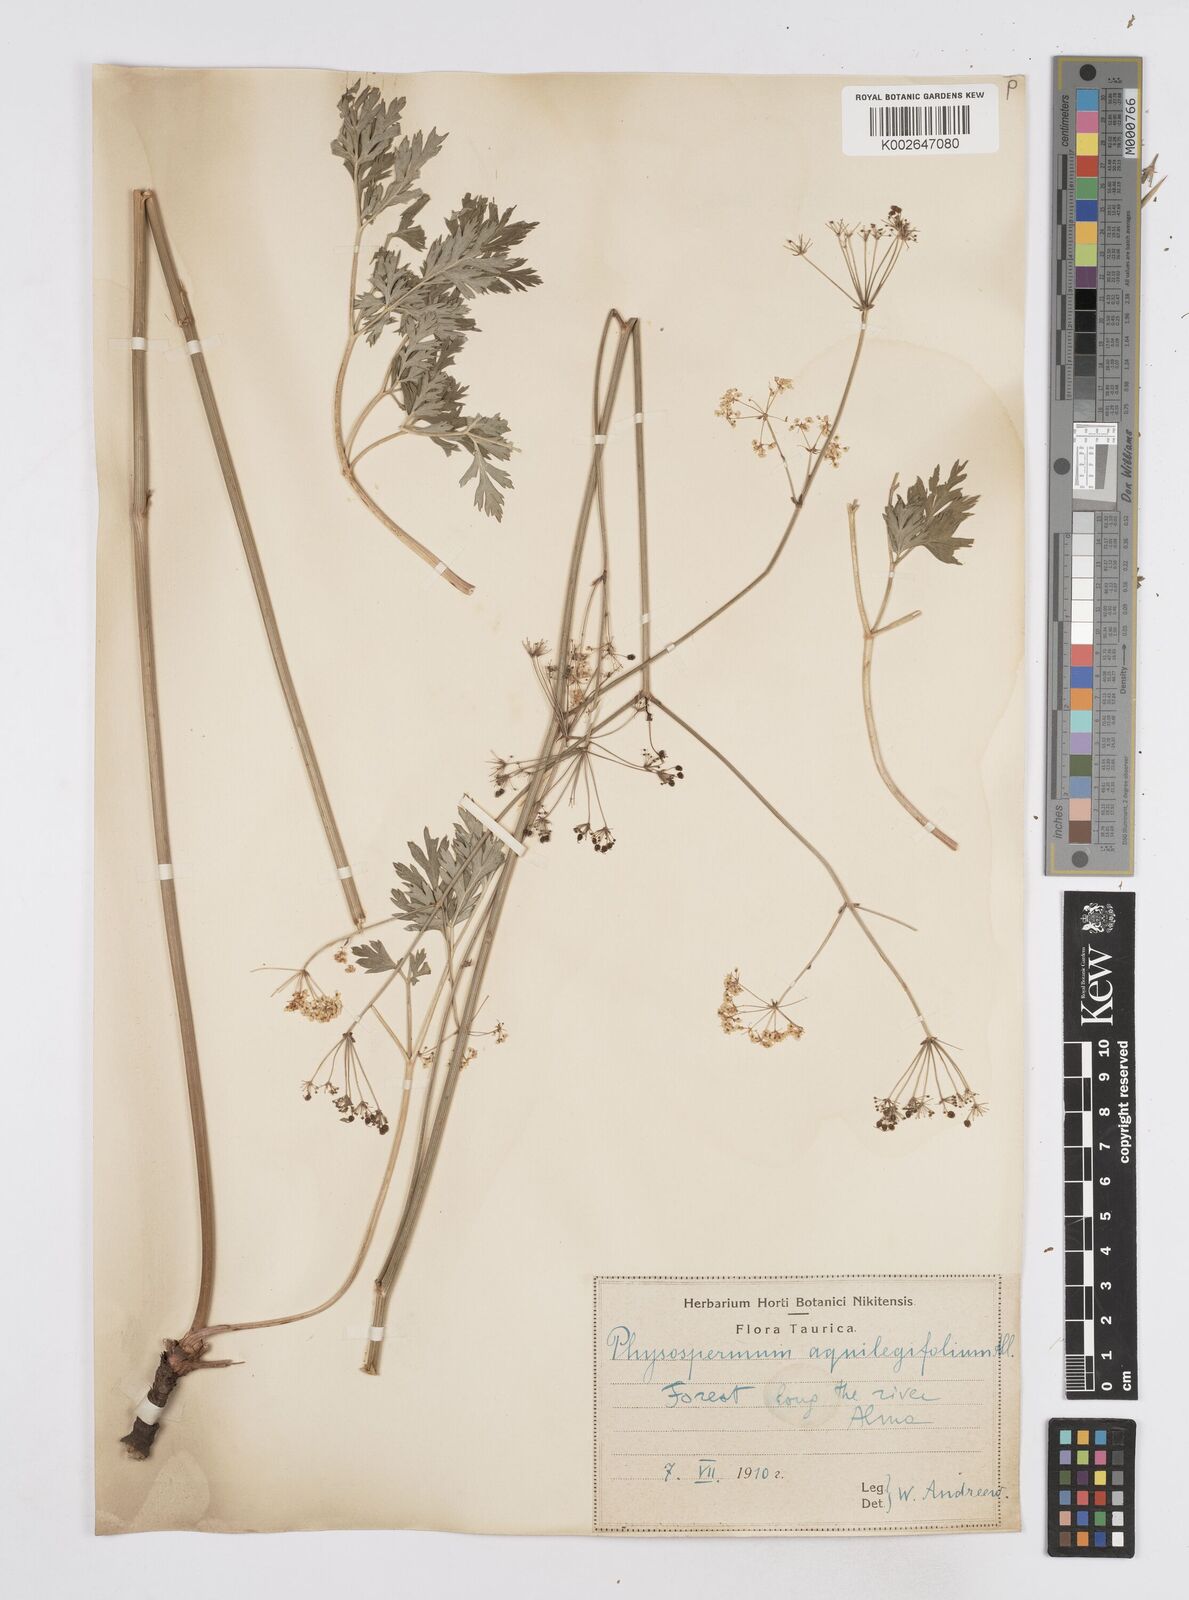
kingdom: Plantae
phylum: Tracheophyta
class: Magnoliopsida
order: Apiales
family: Apiaceae
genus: Physospermum
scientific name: Physospermum cornubiense
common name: Bladderseed
